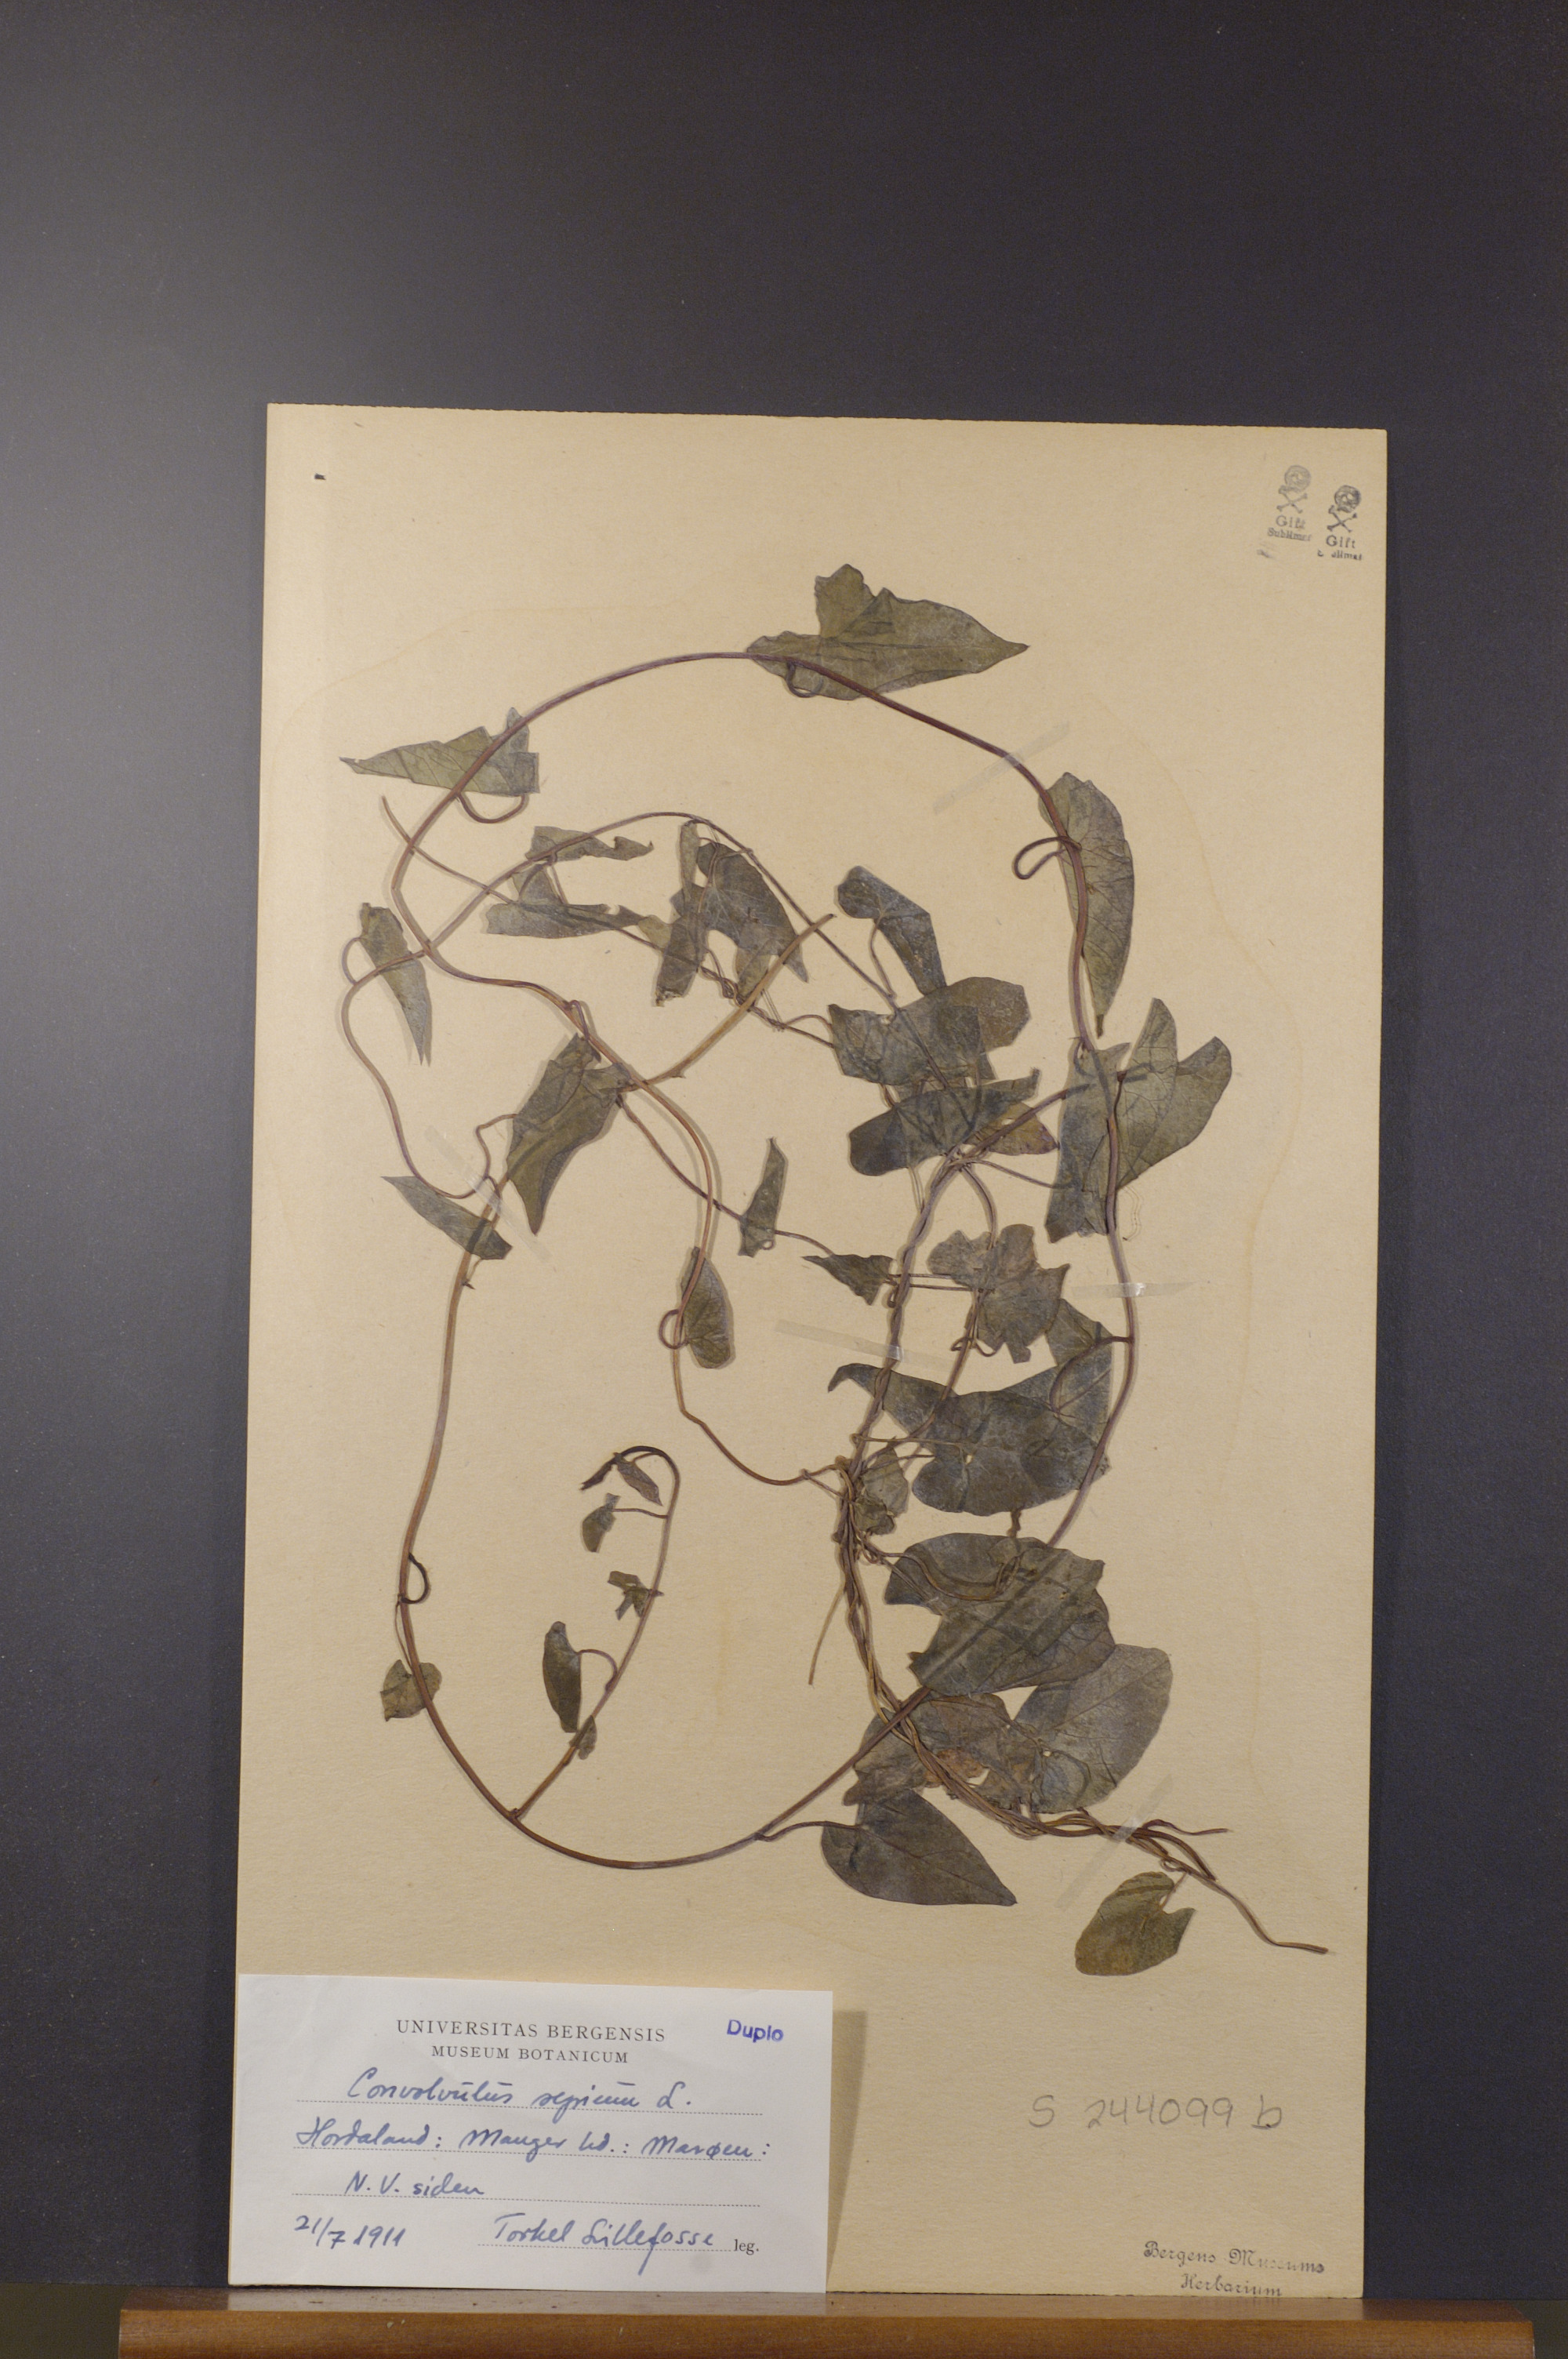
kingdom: Plantae
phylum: Tracheophyta
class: Magnoliopsida
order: Solanales
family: Convolvulaceae
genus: Calystegia
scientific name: Calystegia sepium
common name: Hedge bindweed
